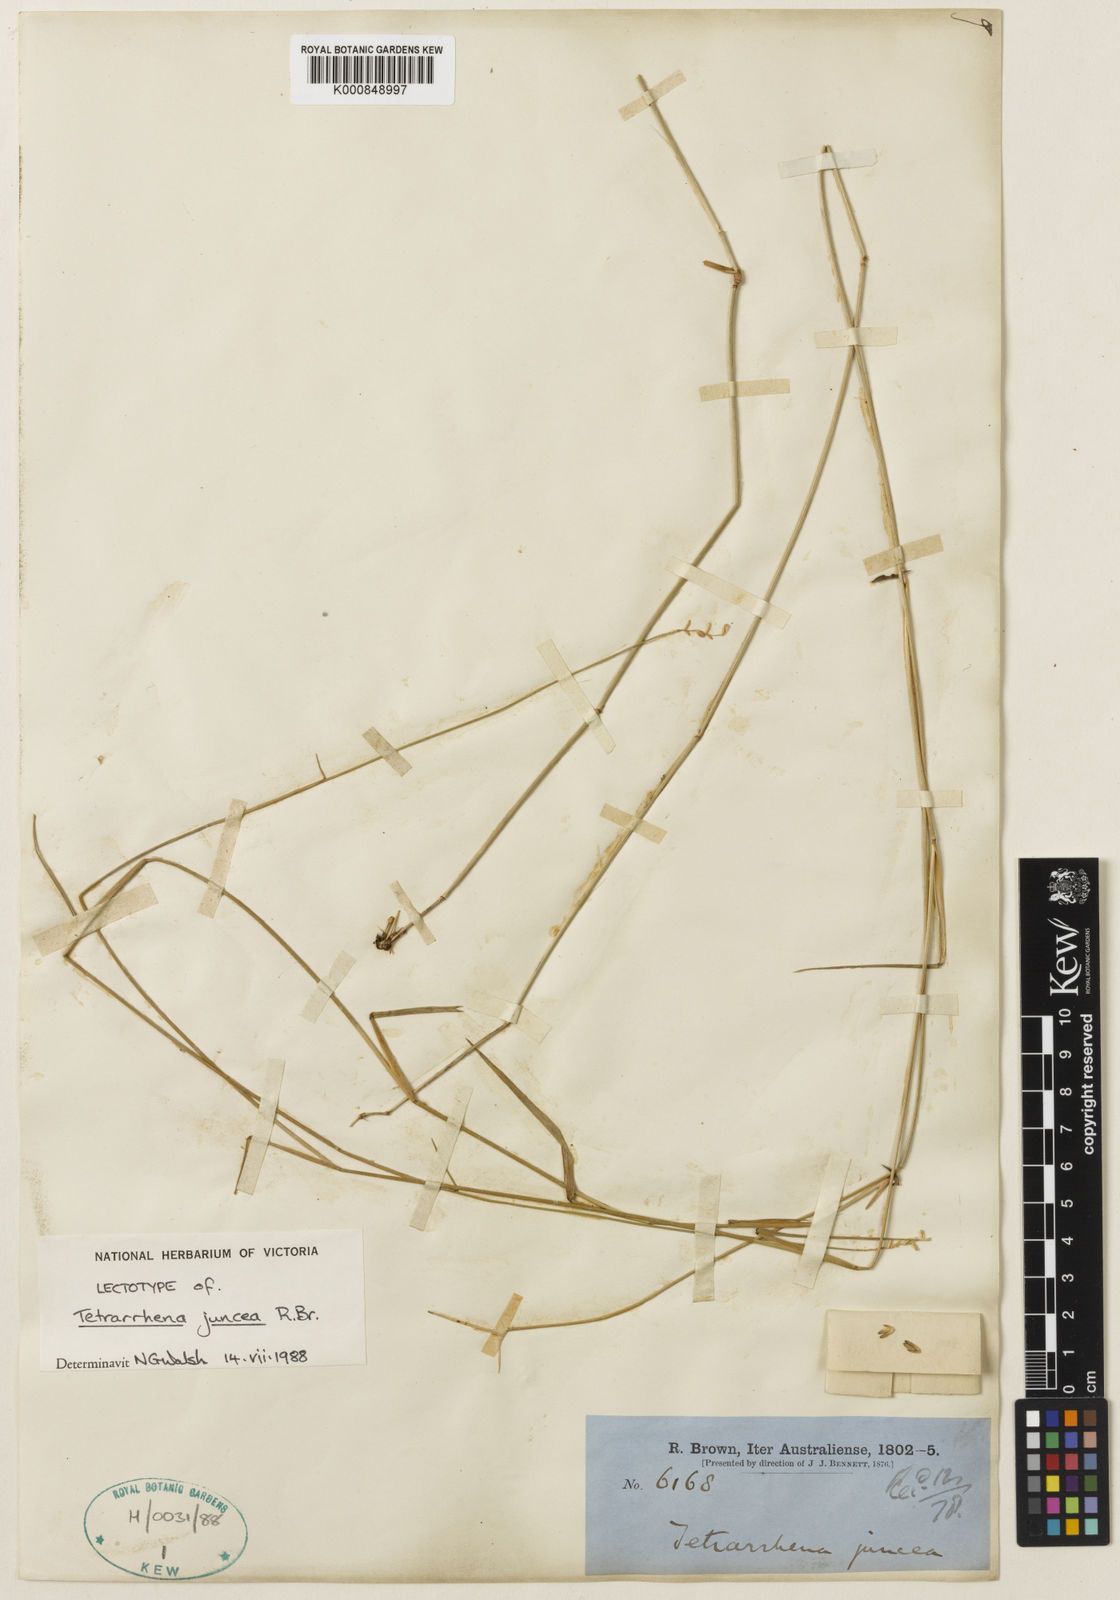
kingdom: Plantae
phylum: Tracheophyta
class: Liliopsida
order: Poales
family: Poaceae
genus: Tetrarrhena
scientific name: Tetrarrhena juncea
